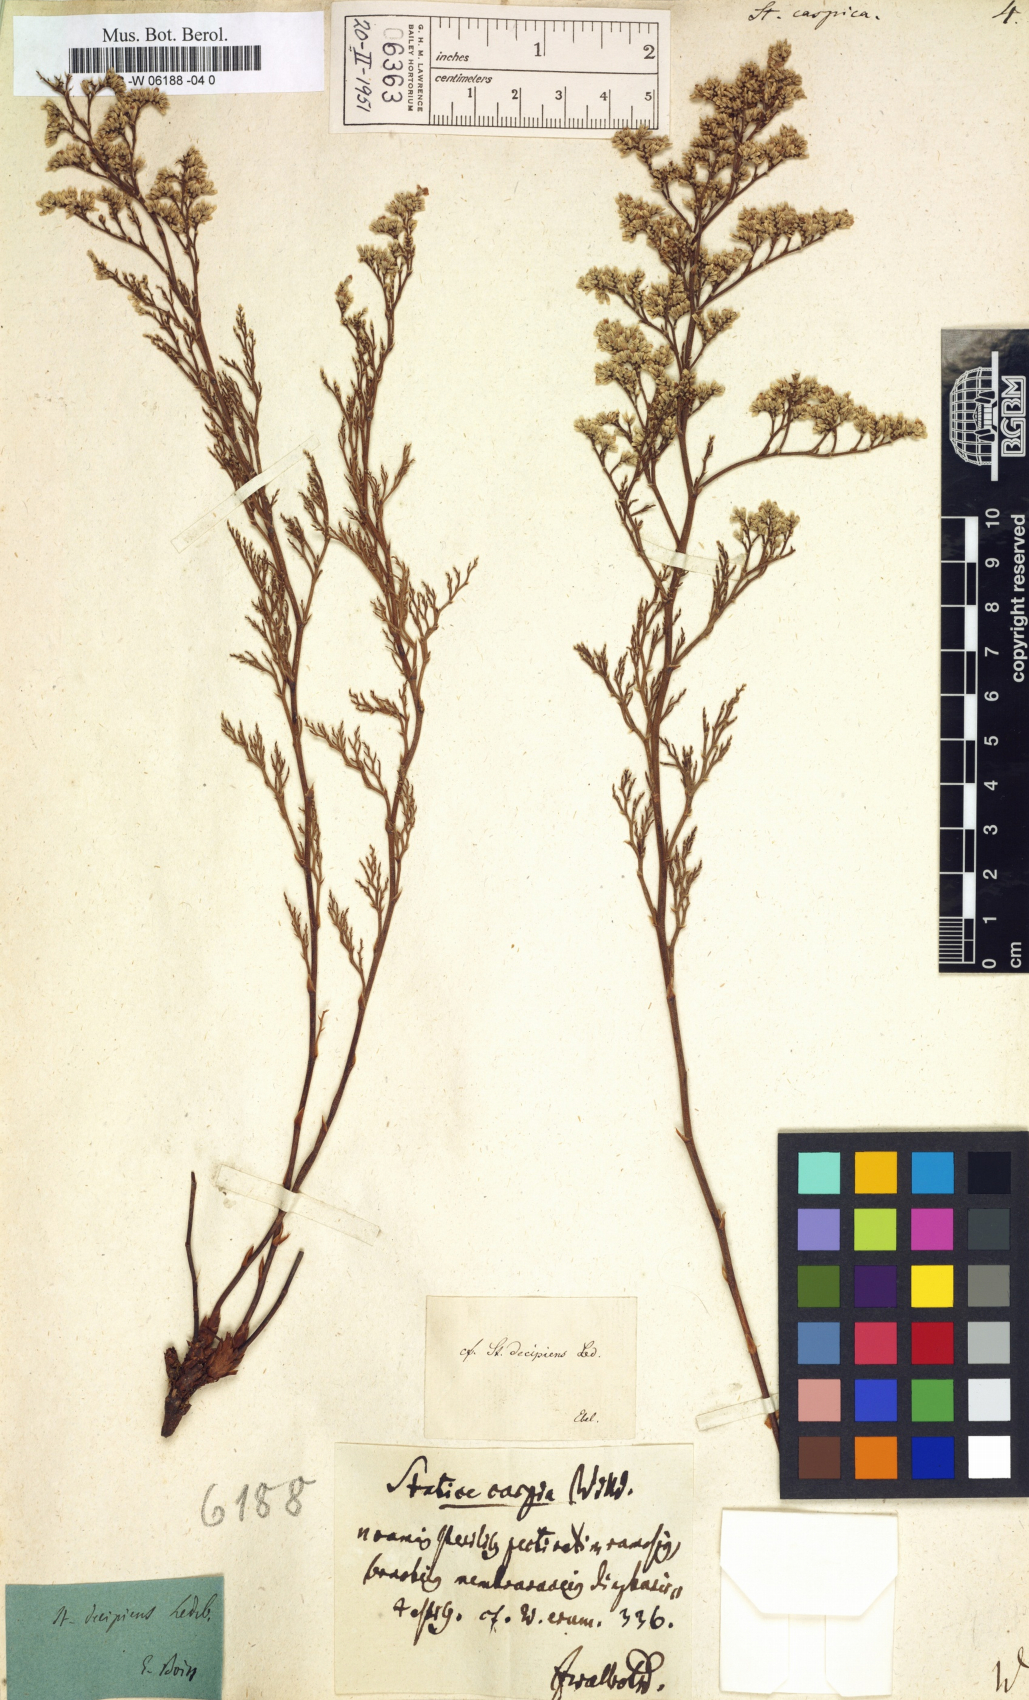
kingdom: Plantae
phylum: Tracheophyta
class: Magnoliopsida
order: Caryophyllales
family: Plumbaginaceae
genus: Limonium
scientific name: Limonium bellidifolium
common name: Matted sea-lavender
